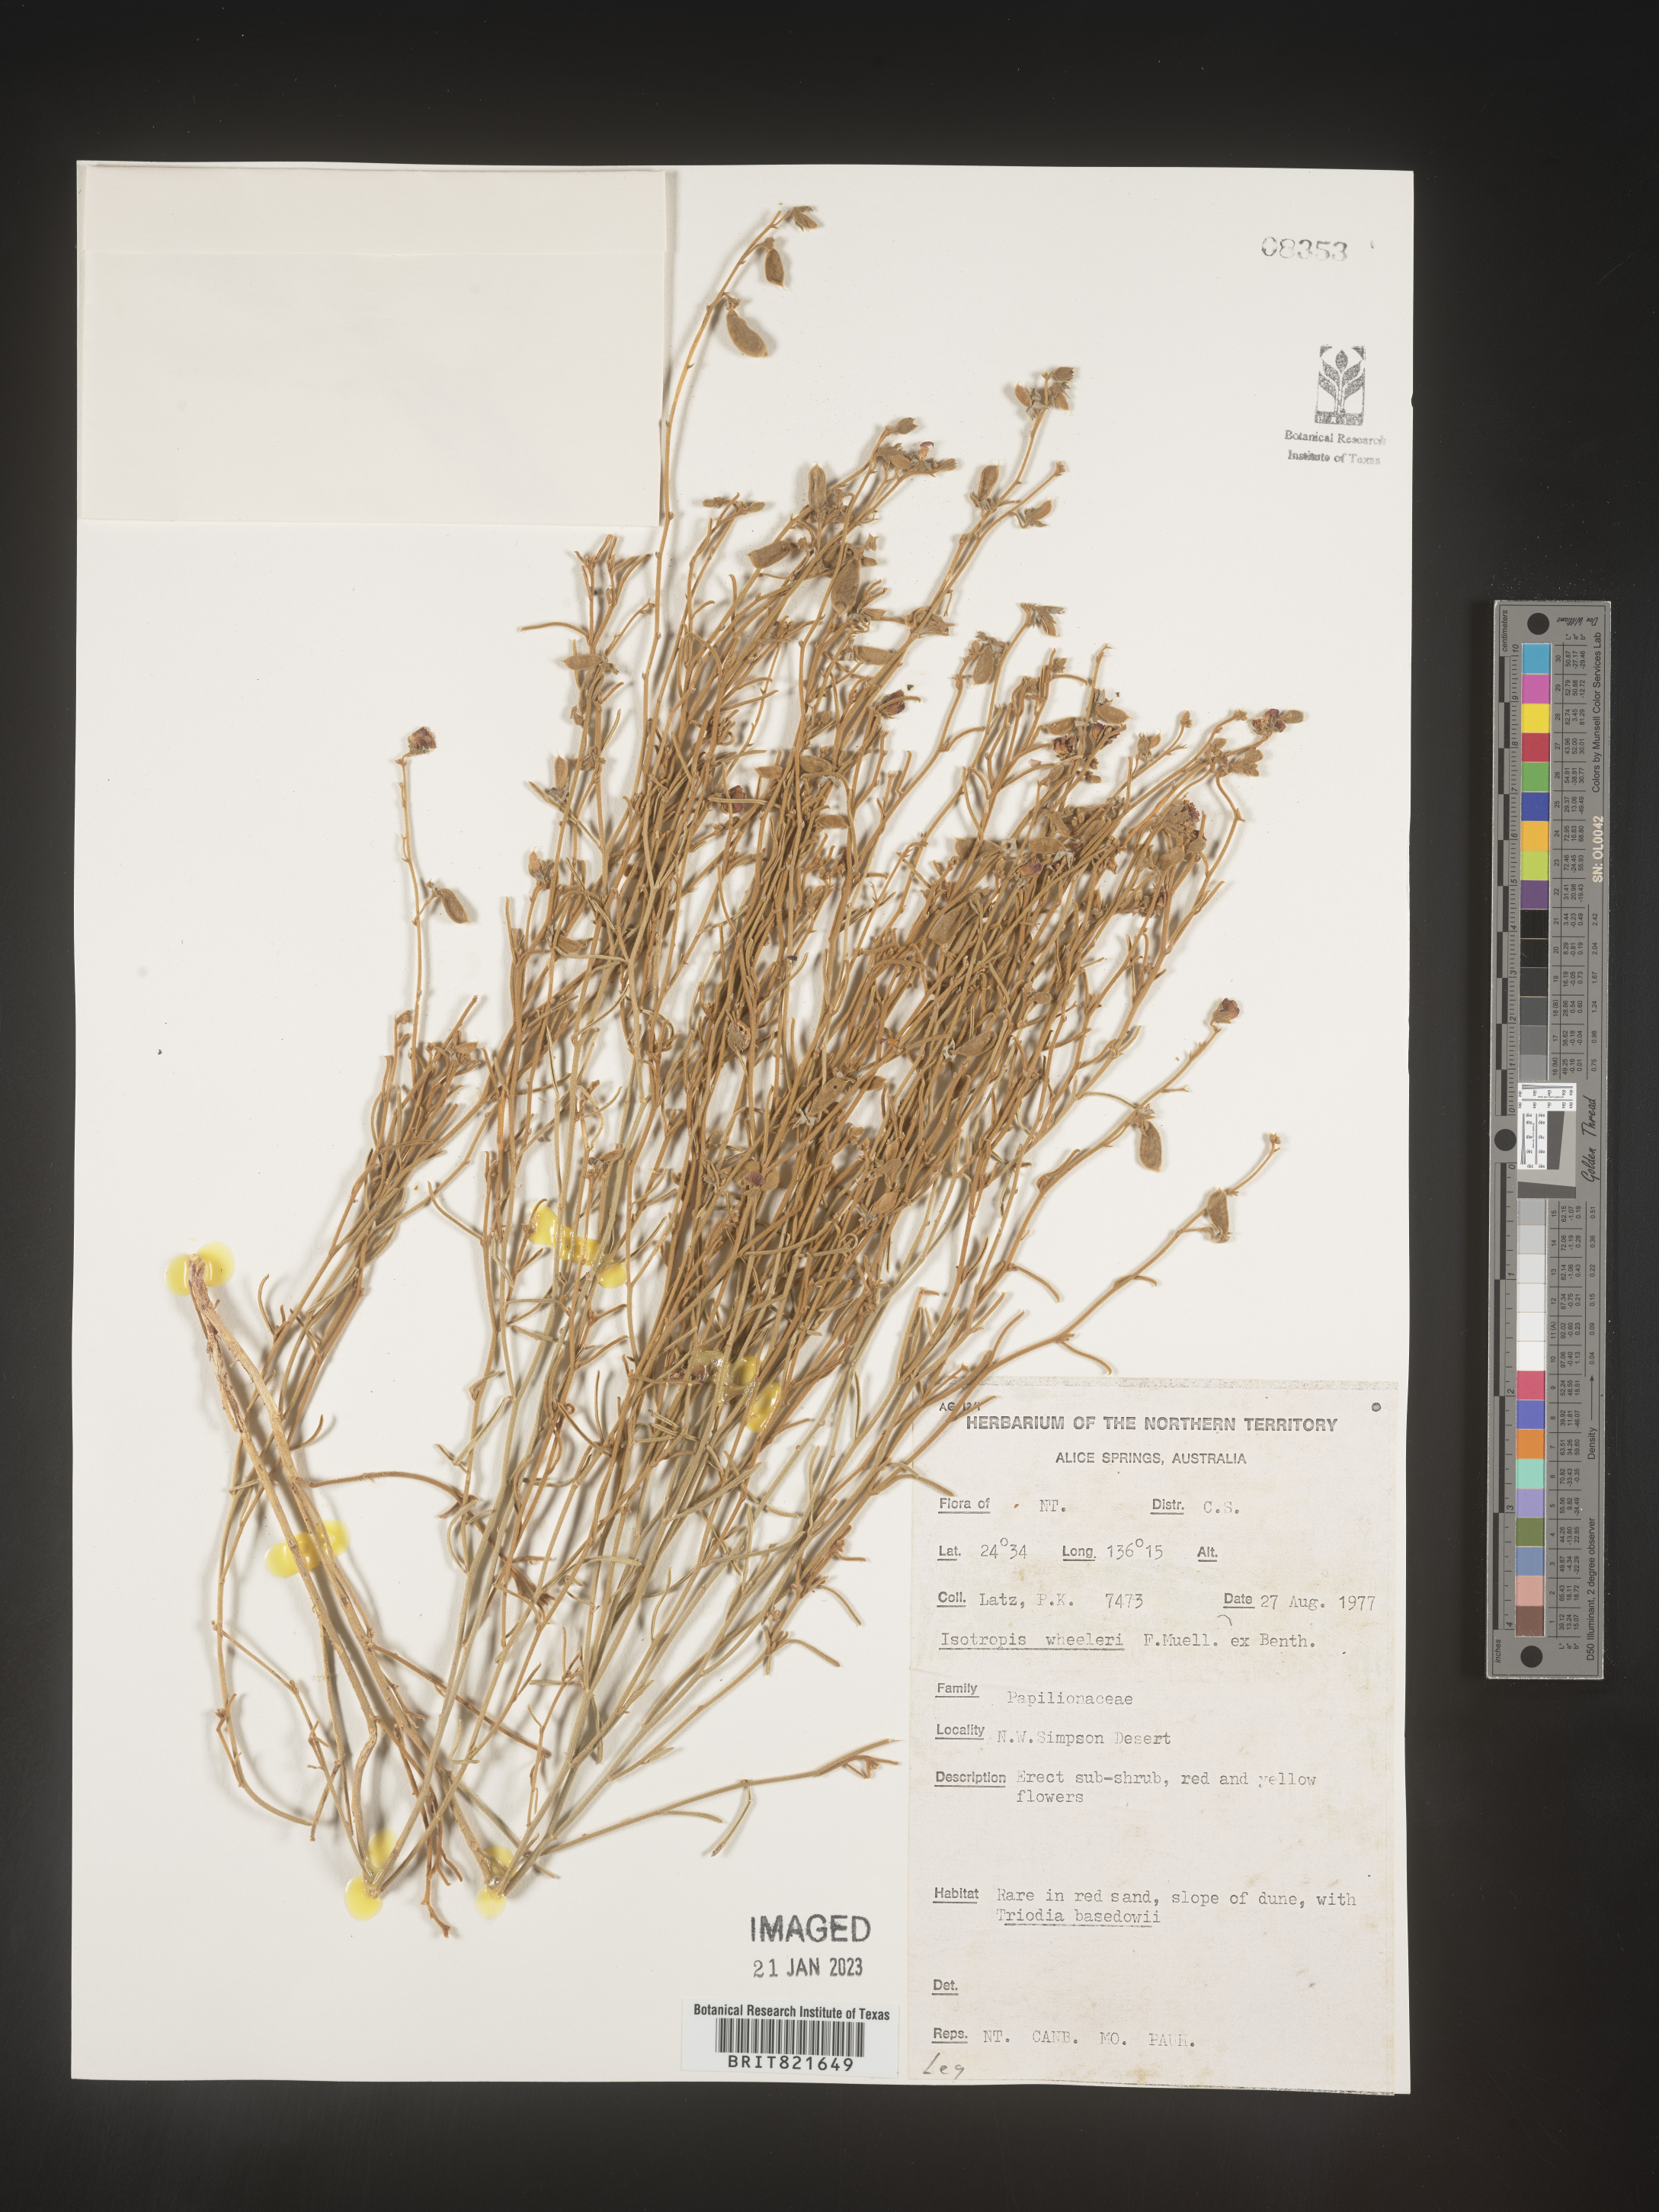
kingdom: Plantae
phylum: Tracheophyta
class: Magnoliopsida
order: Fabales
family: Fabaceae
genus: Isotropis
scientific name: Isotropis
